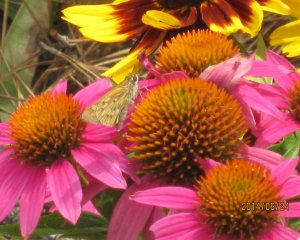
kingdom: Animalia
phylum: Arthropoda
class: Insecta
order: Lepidoptera
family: Hesperiidae
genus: Hylephila
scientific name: Hylephila phyleus
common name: Fiery Skipper
